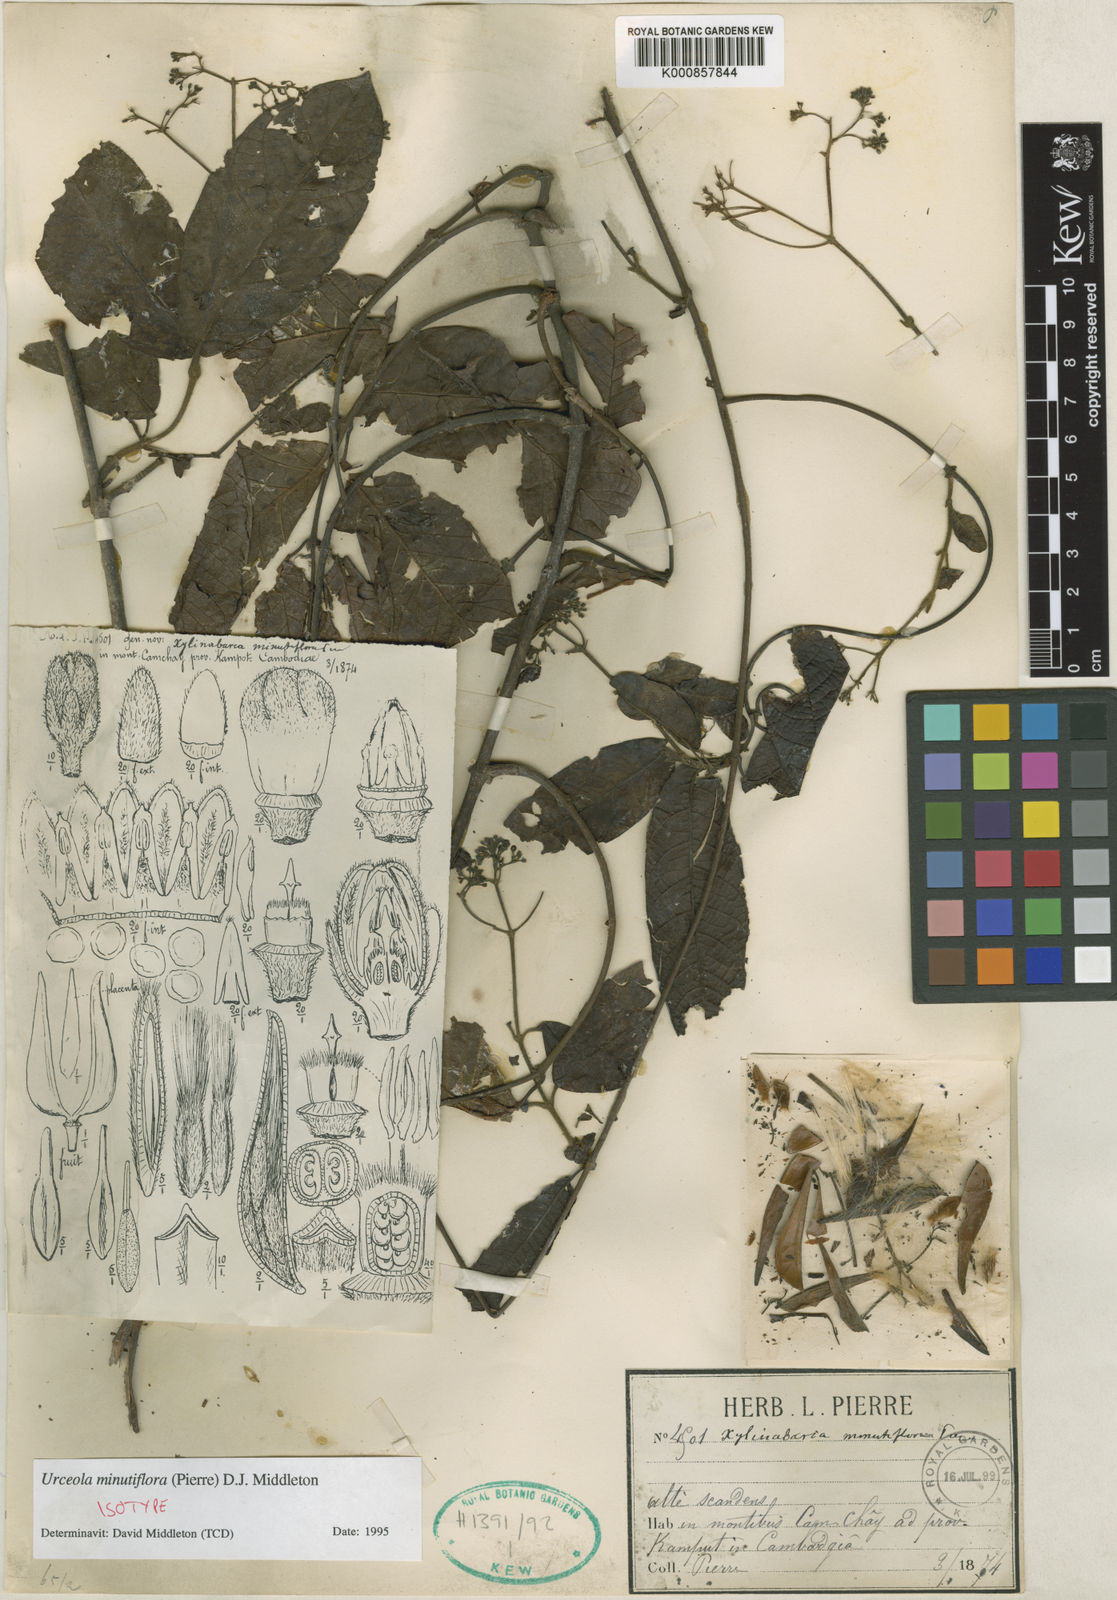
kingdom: Plantae
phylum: Tracheophyta
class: Magnoliopsida
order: Gentianales
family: Apocynaceae
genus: Urceola
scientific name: Urceola minutiflora
